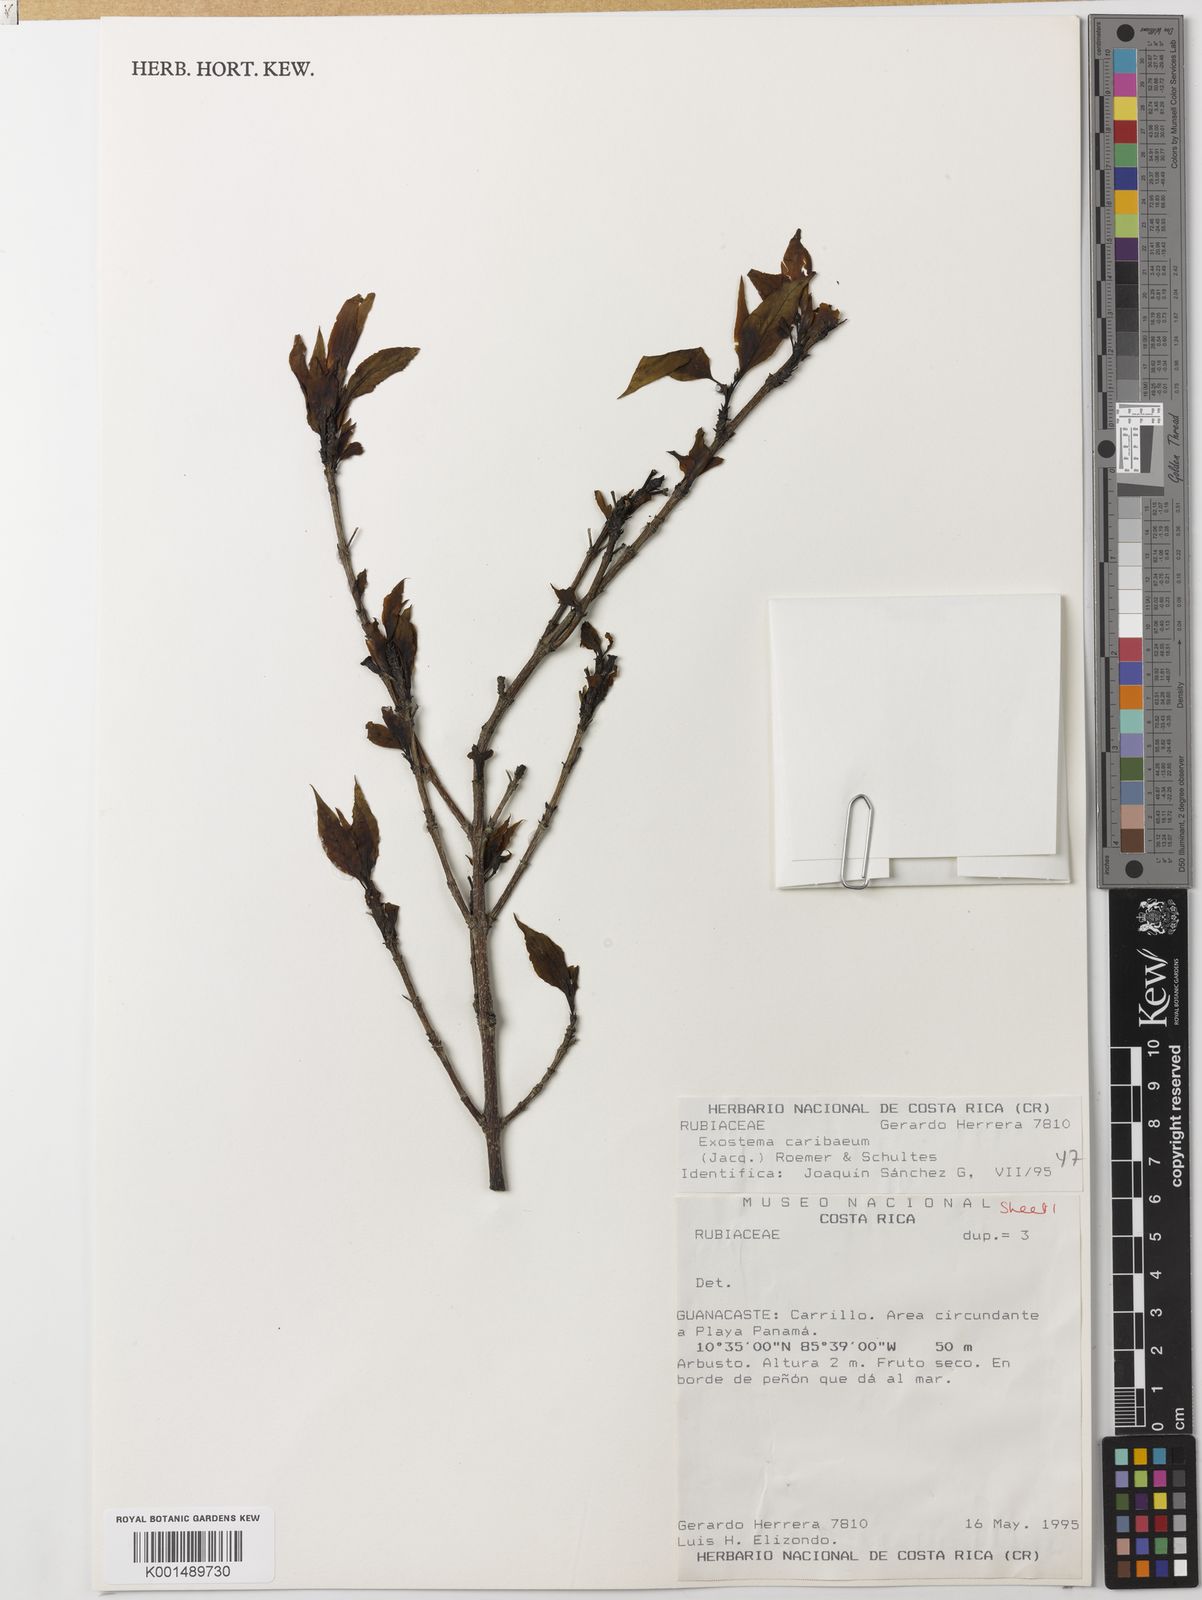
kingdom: Plantae
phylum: Tracheophyta
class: Magnoliopsida
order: Gentianales
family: Rubiaceae
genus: Exostema
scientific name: Exostema caribaeum
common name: Princewood
